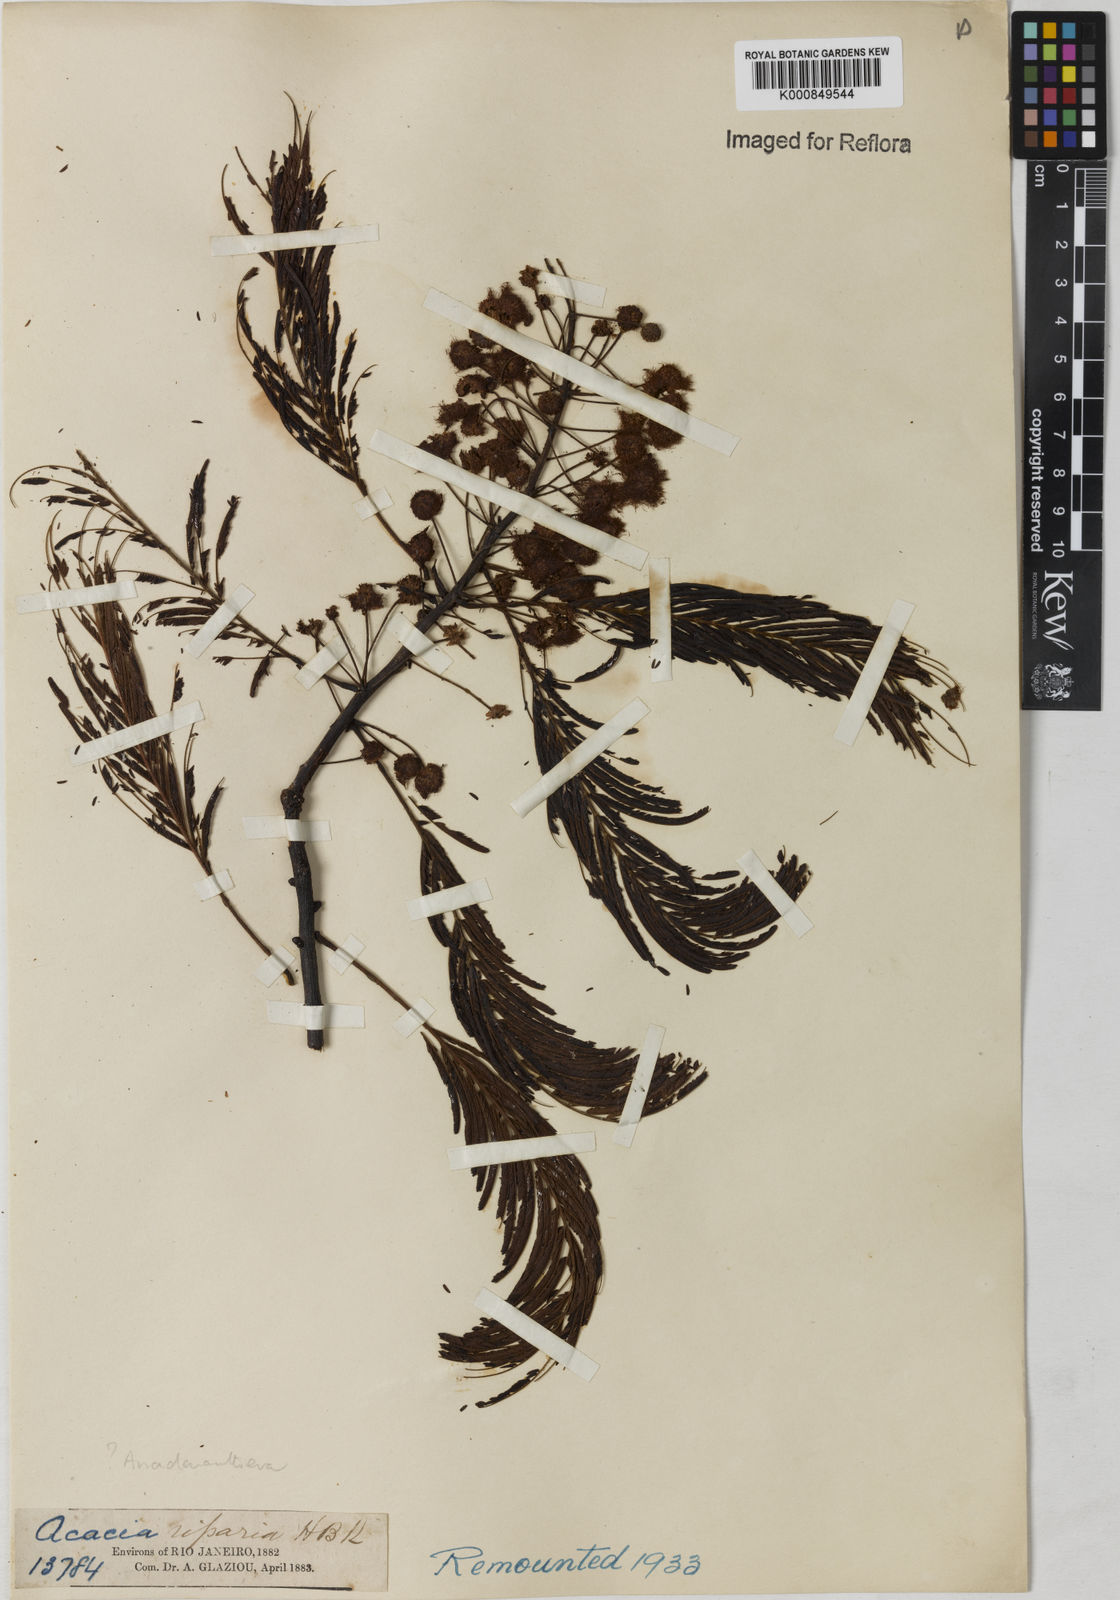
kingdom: Plantae
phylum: Tracheophyta
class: Magnoliopsida
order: Fabales
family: Fabaceae
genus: Anadenanthera
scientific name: Anadenanthera
